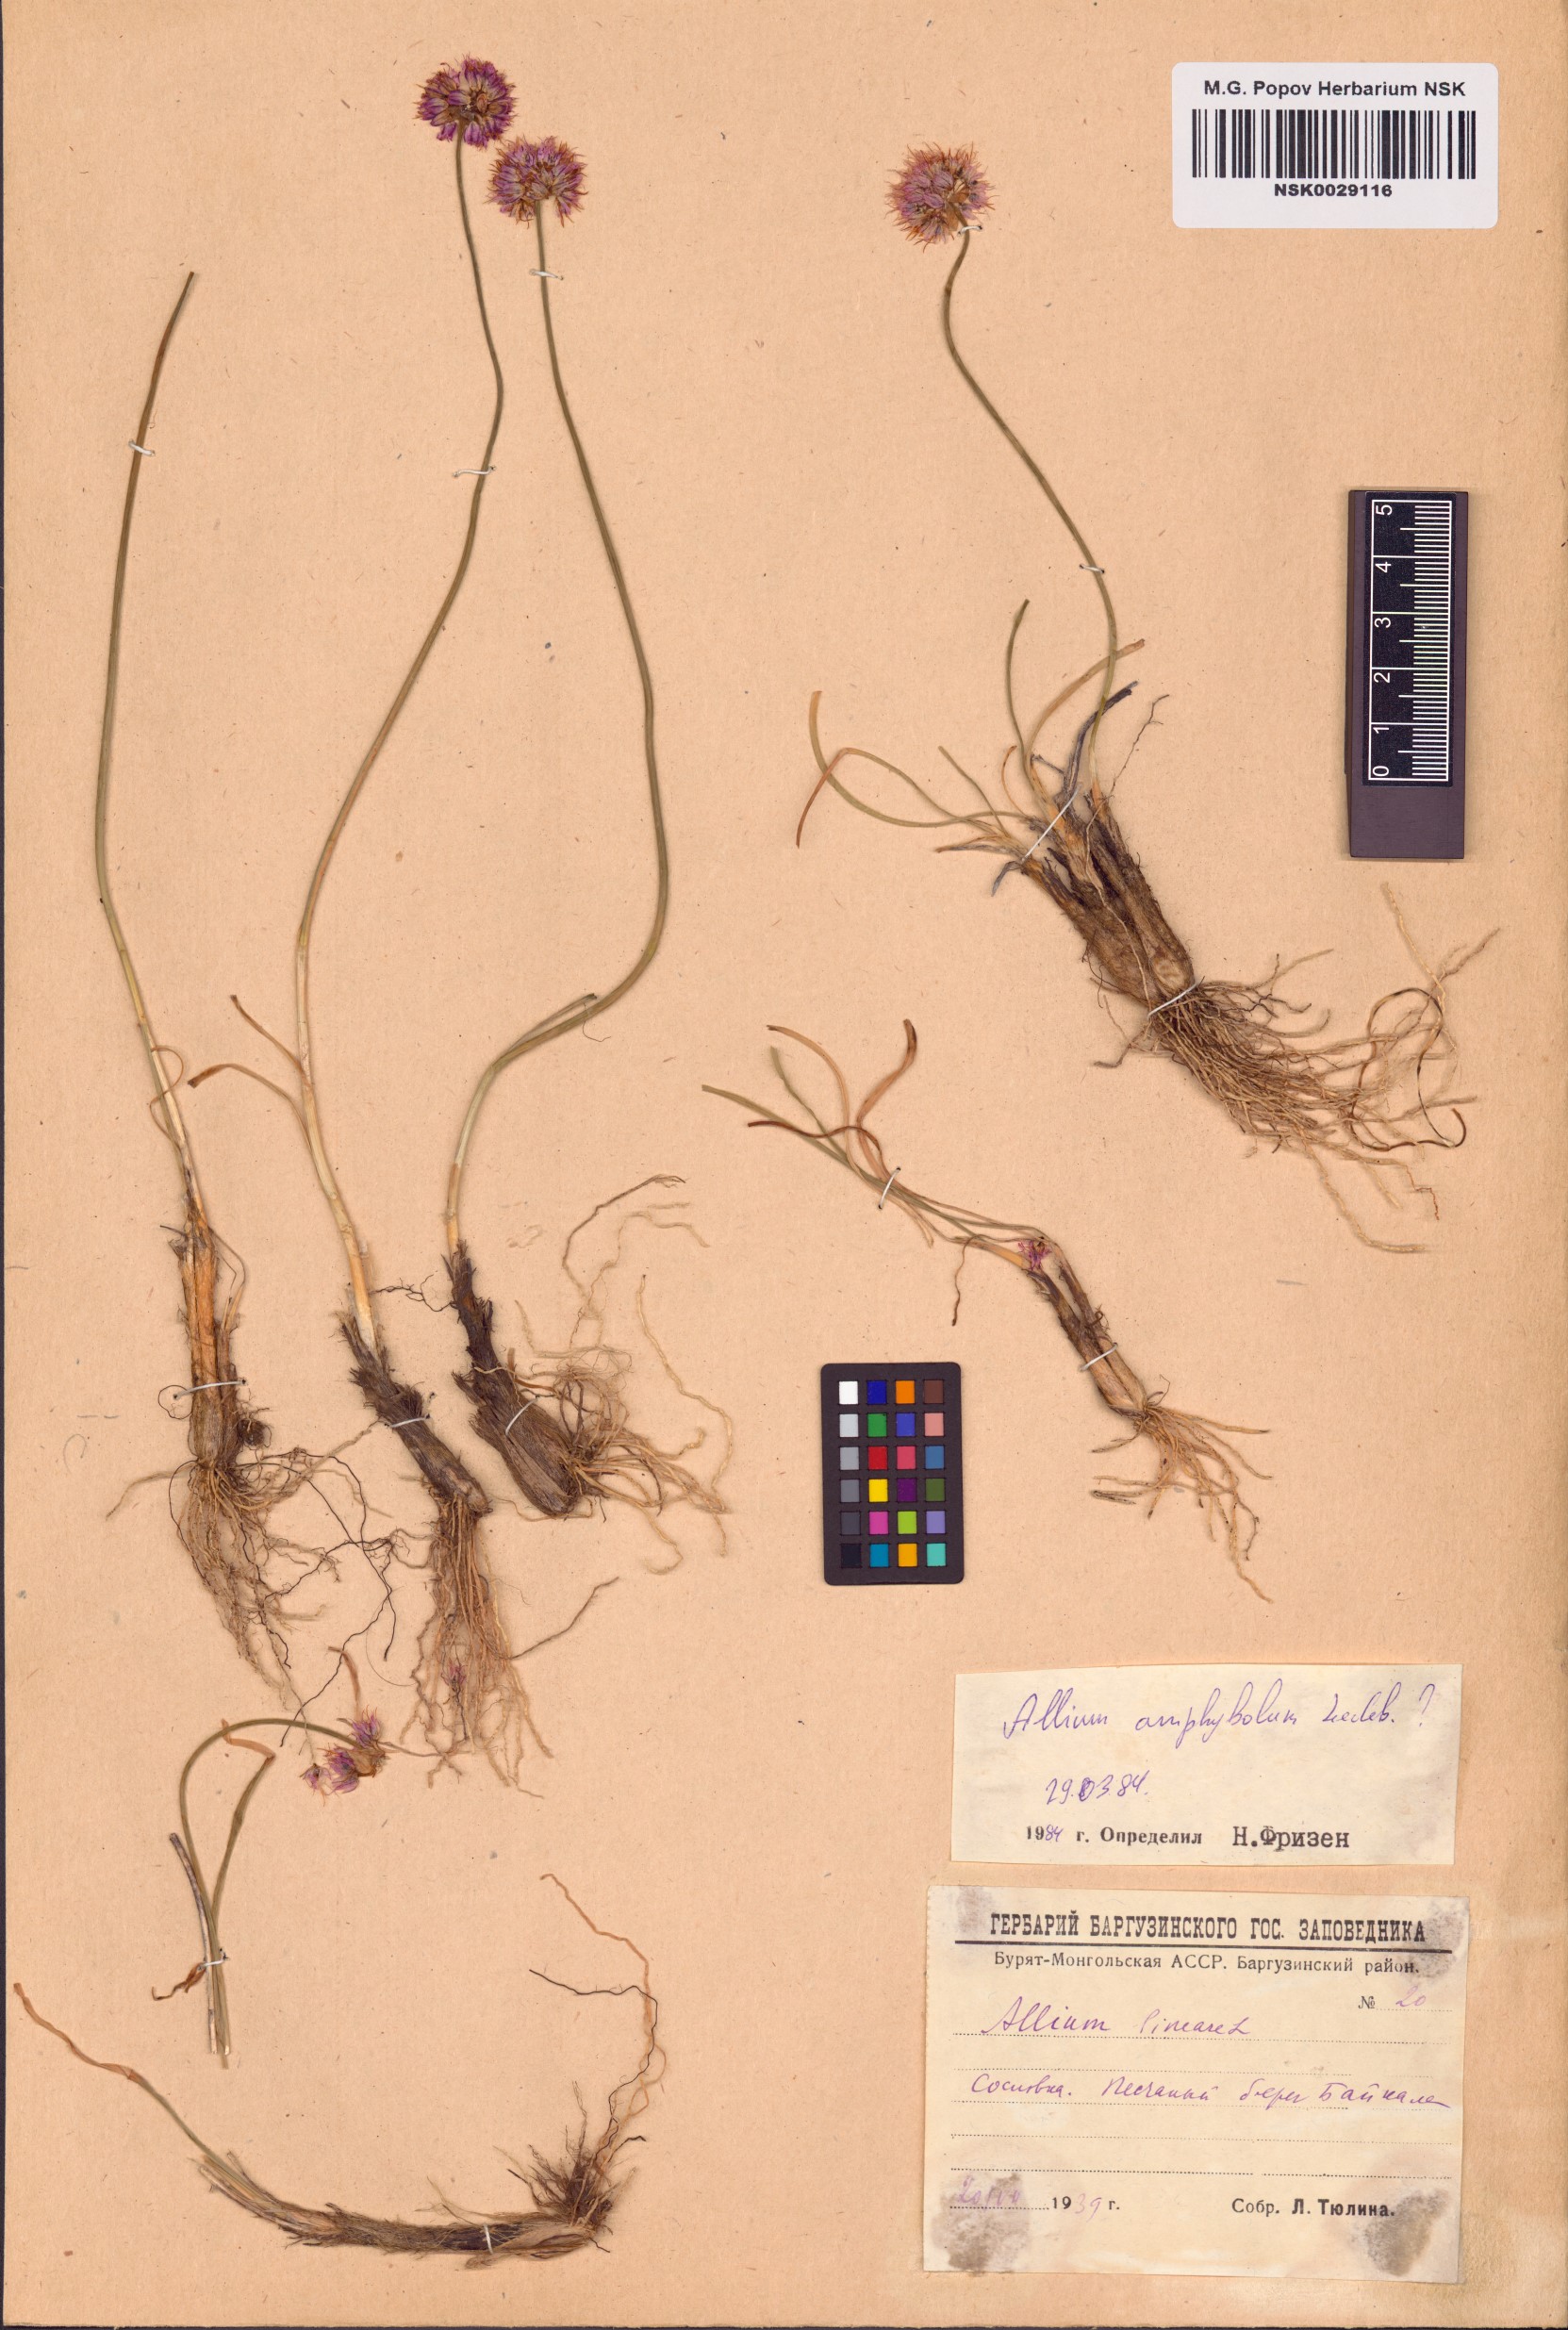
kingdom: Plantae
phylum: Tracheophyta
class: Liliopsida
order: Asparagales
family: Amaryllidaceae
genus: Allium
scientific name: Allium amphibolum
